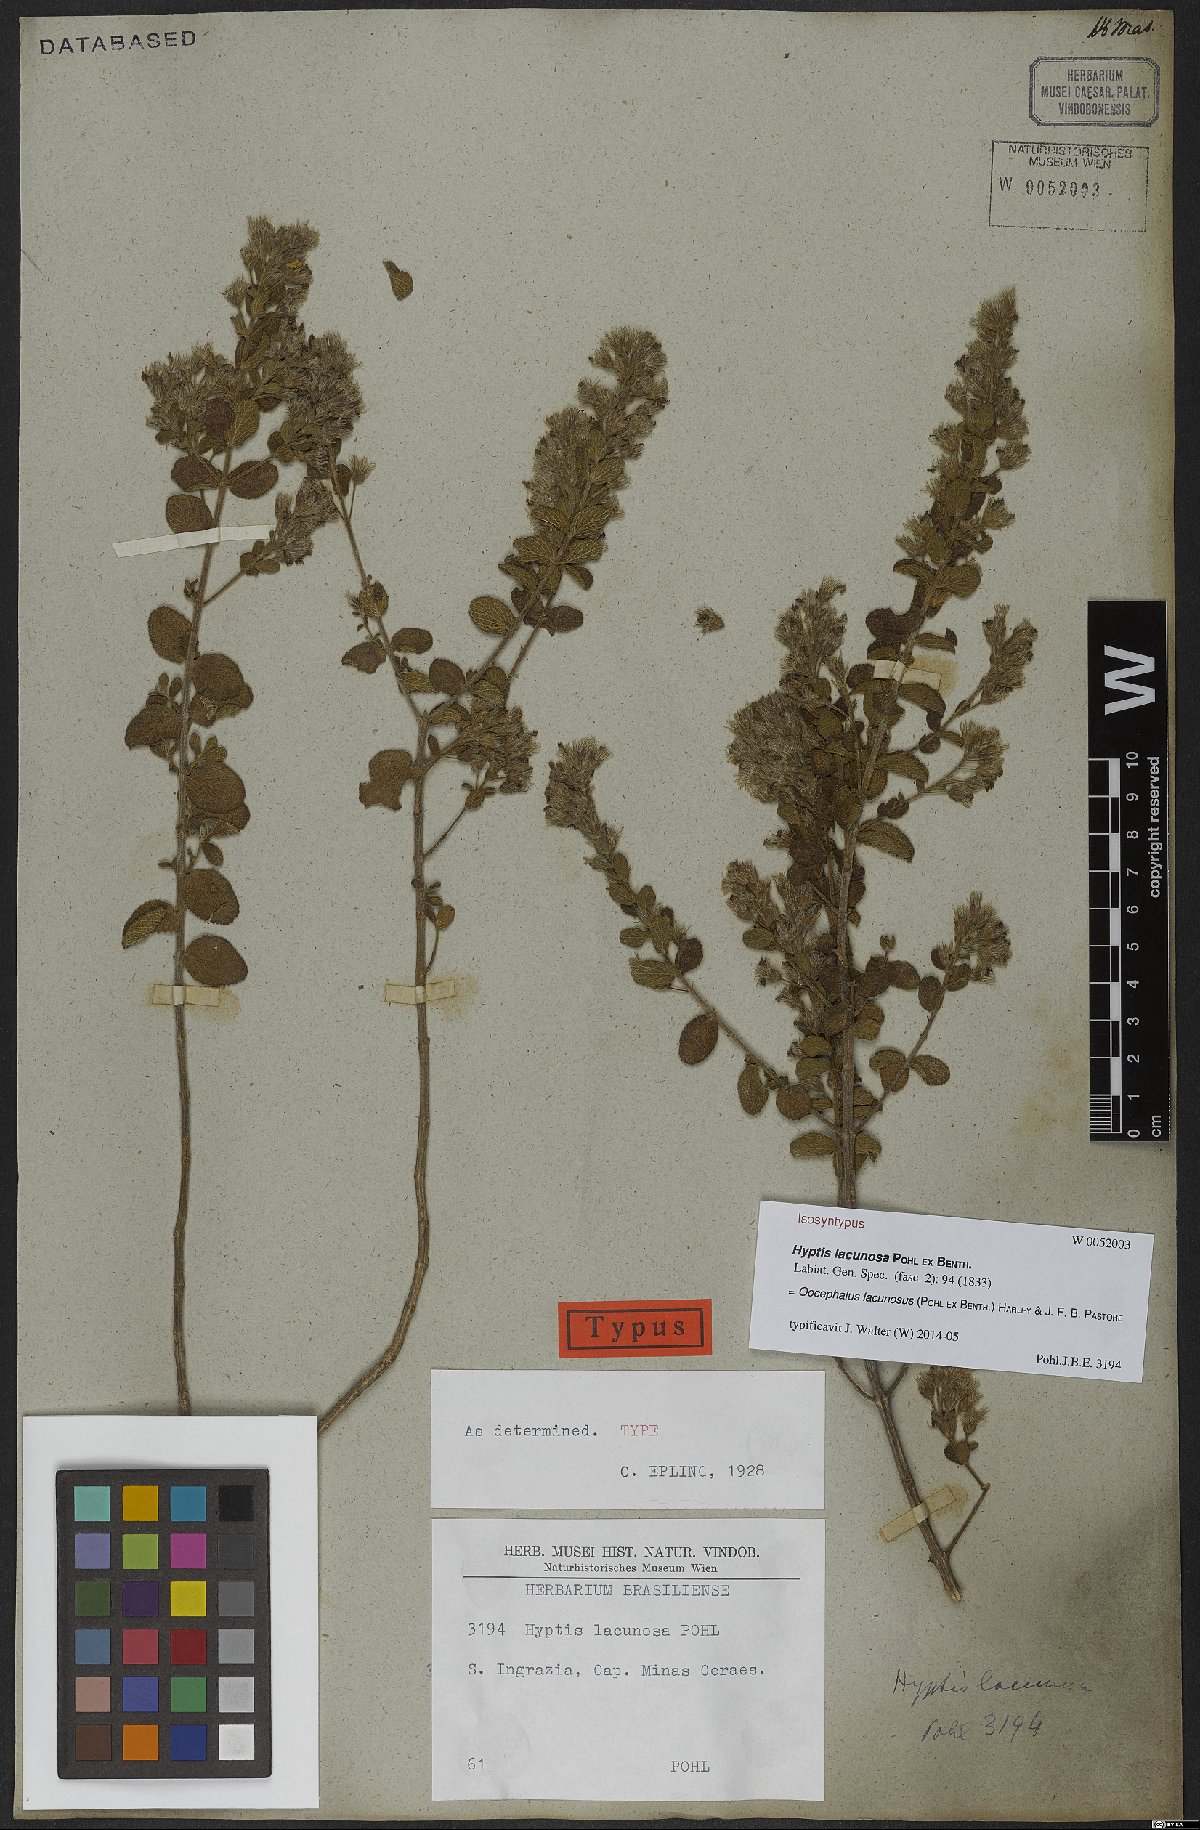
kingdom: Plantae
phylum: Tracheophyta
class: Magnoliopsida
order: Lamiales
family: Lamiaceae
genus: Oocephalus
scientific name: Oocephalus lacunosus
